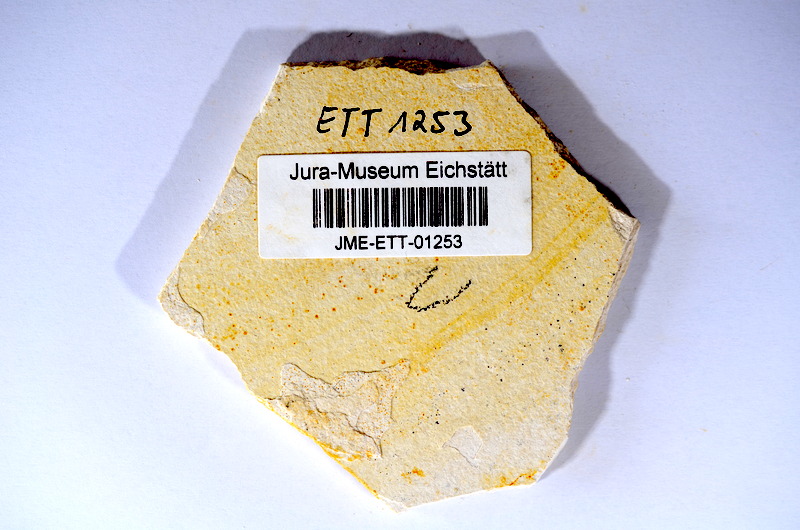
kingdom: Animalia
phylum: Chordata
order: Salmoniformes
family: Orthogonikleithridae
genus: Orthogonikleithrus
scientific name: Orthogonikleithrus hoelli
